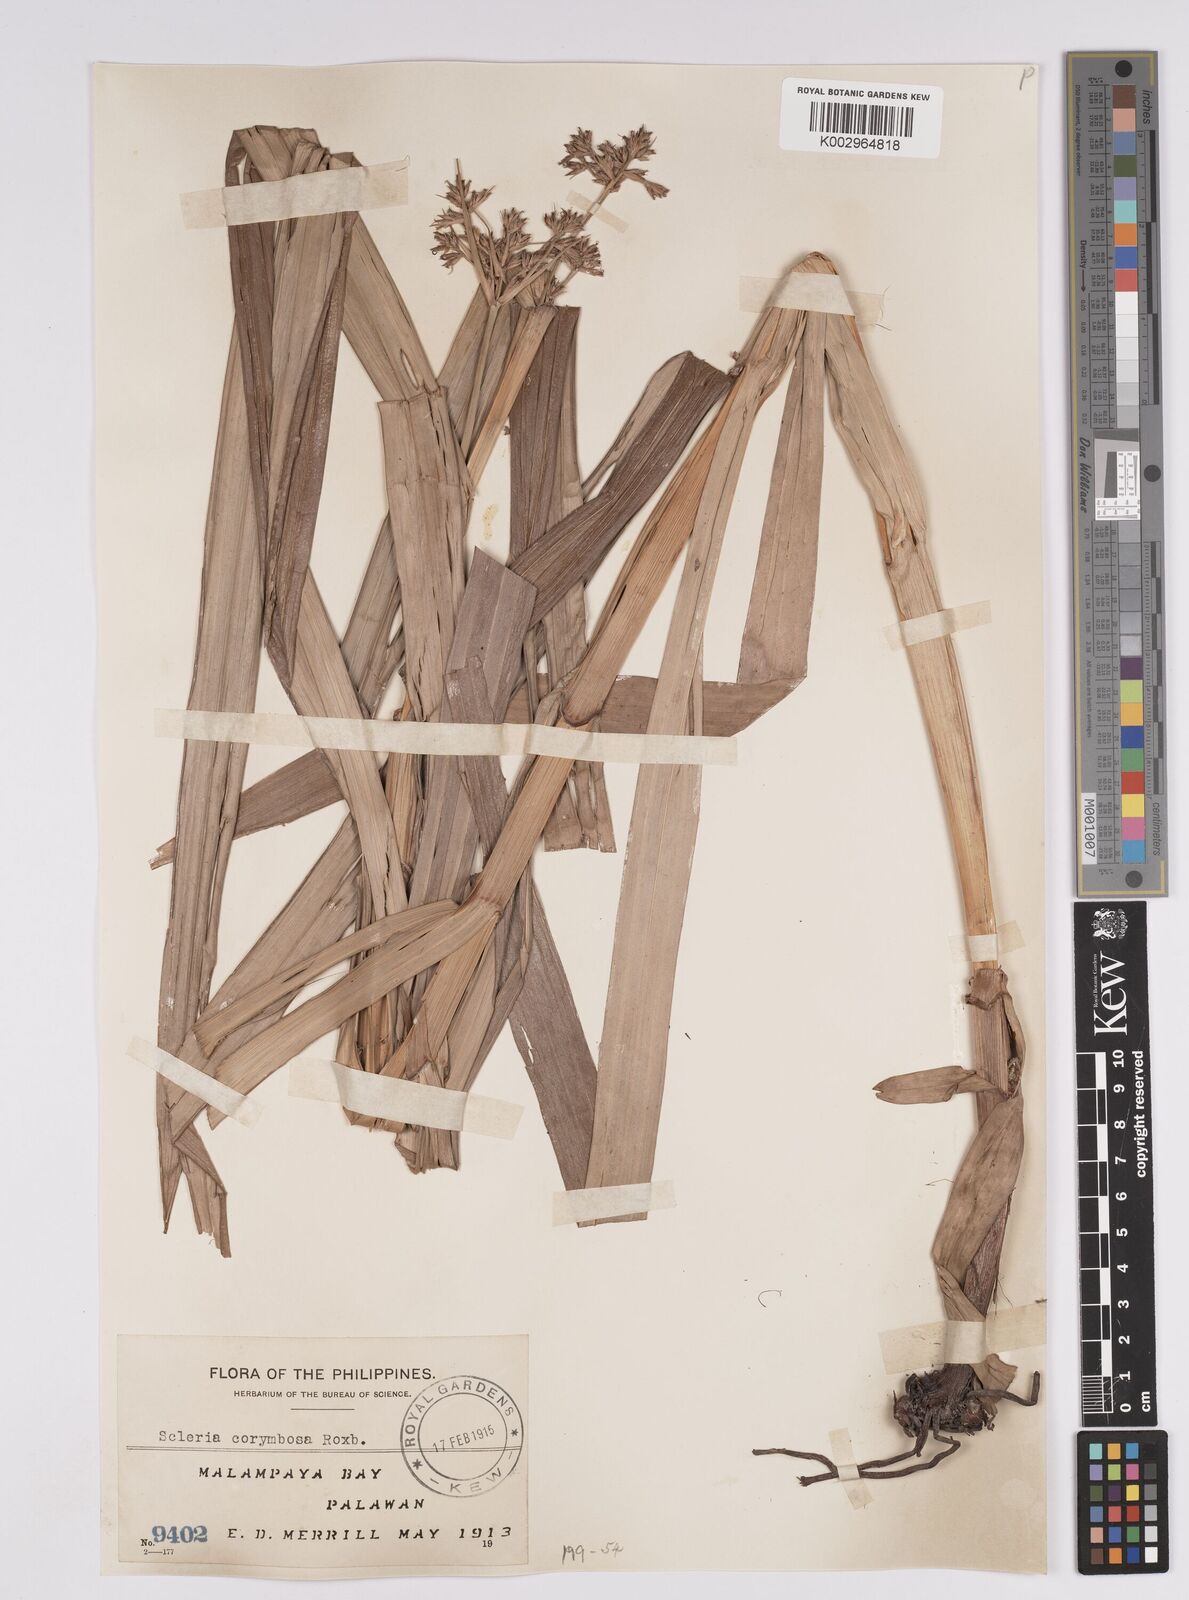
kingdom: Plantae
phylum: Tracheophyta
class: Liliopsida
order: Poales
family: Cyperaceae
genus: Scleria
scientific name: Scleria corymbosa
